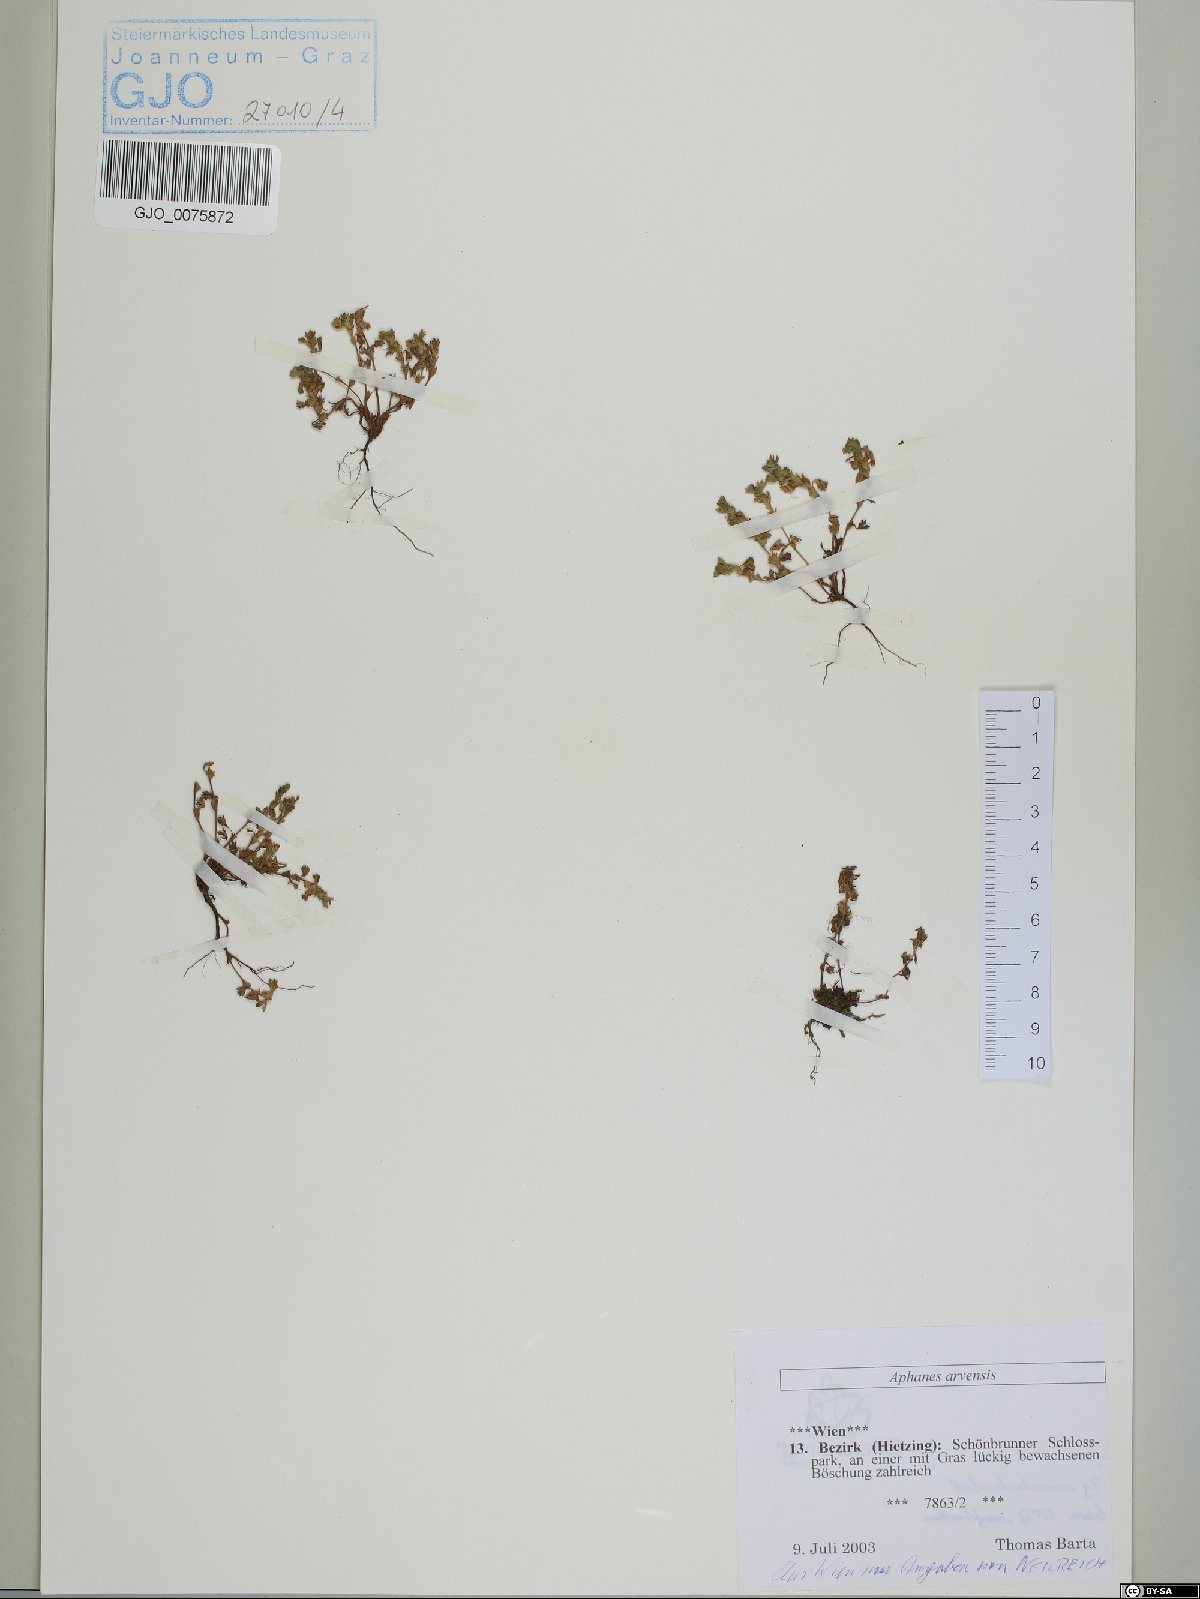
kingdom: Plantae
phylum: Tracheophyta
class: Magnoliopsida
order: Rosales
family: Rosaceae
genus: Aphanes
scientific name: Aphanes arvensis
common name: Parsley-piert
